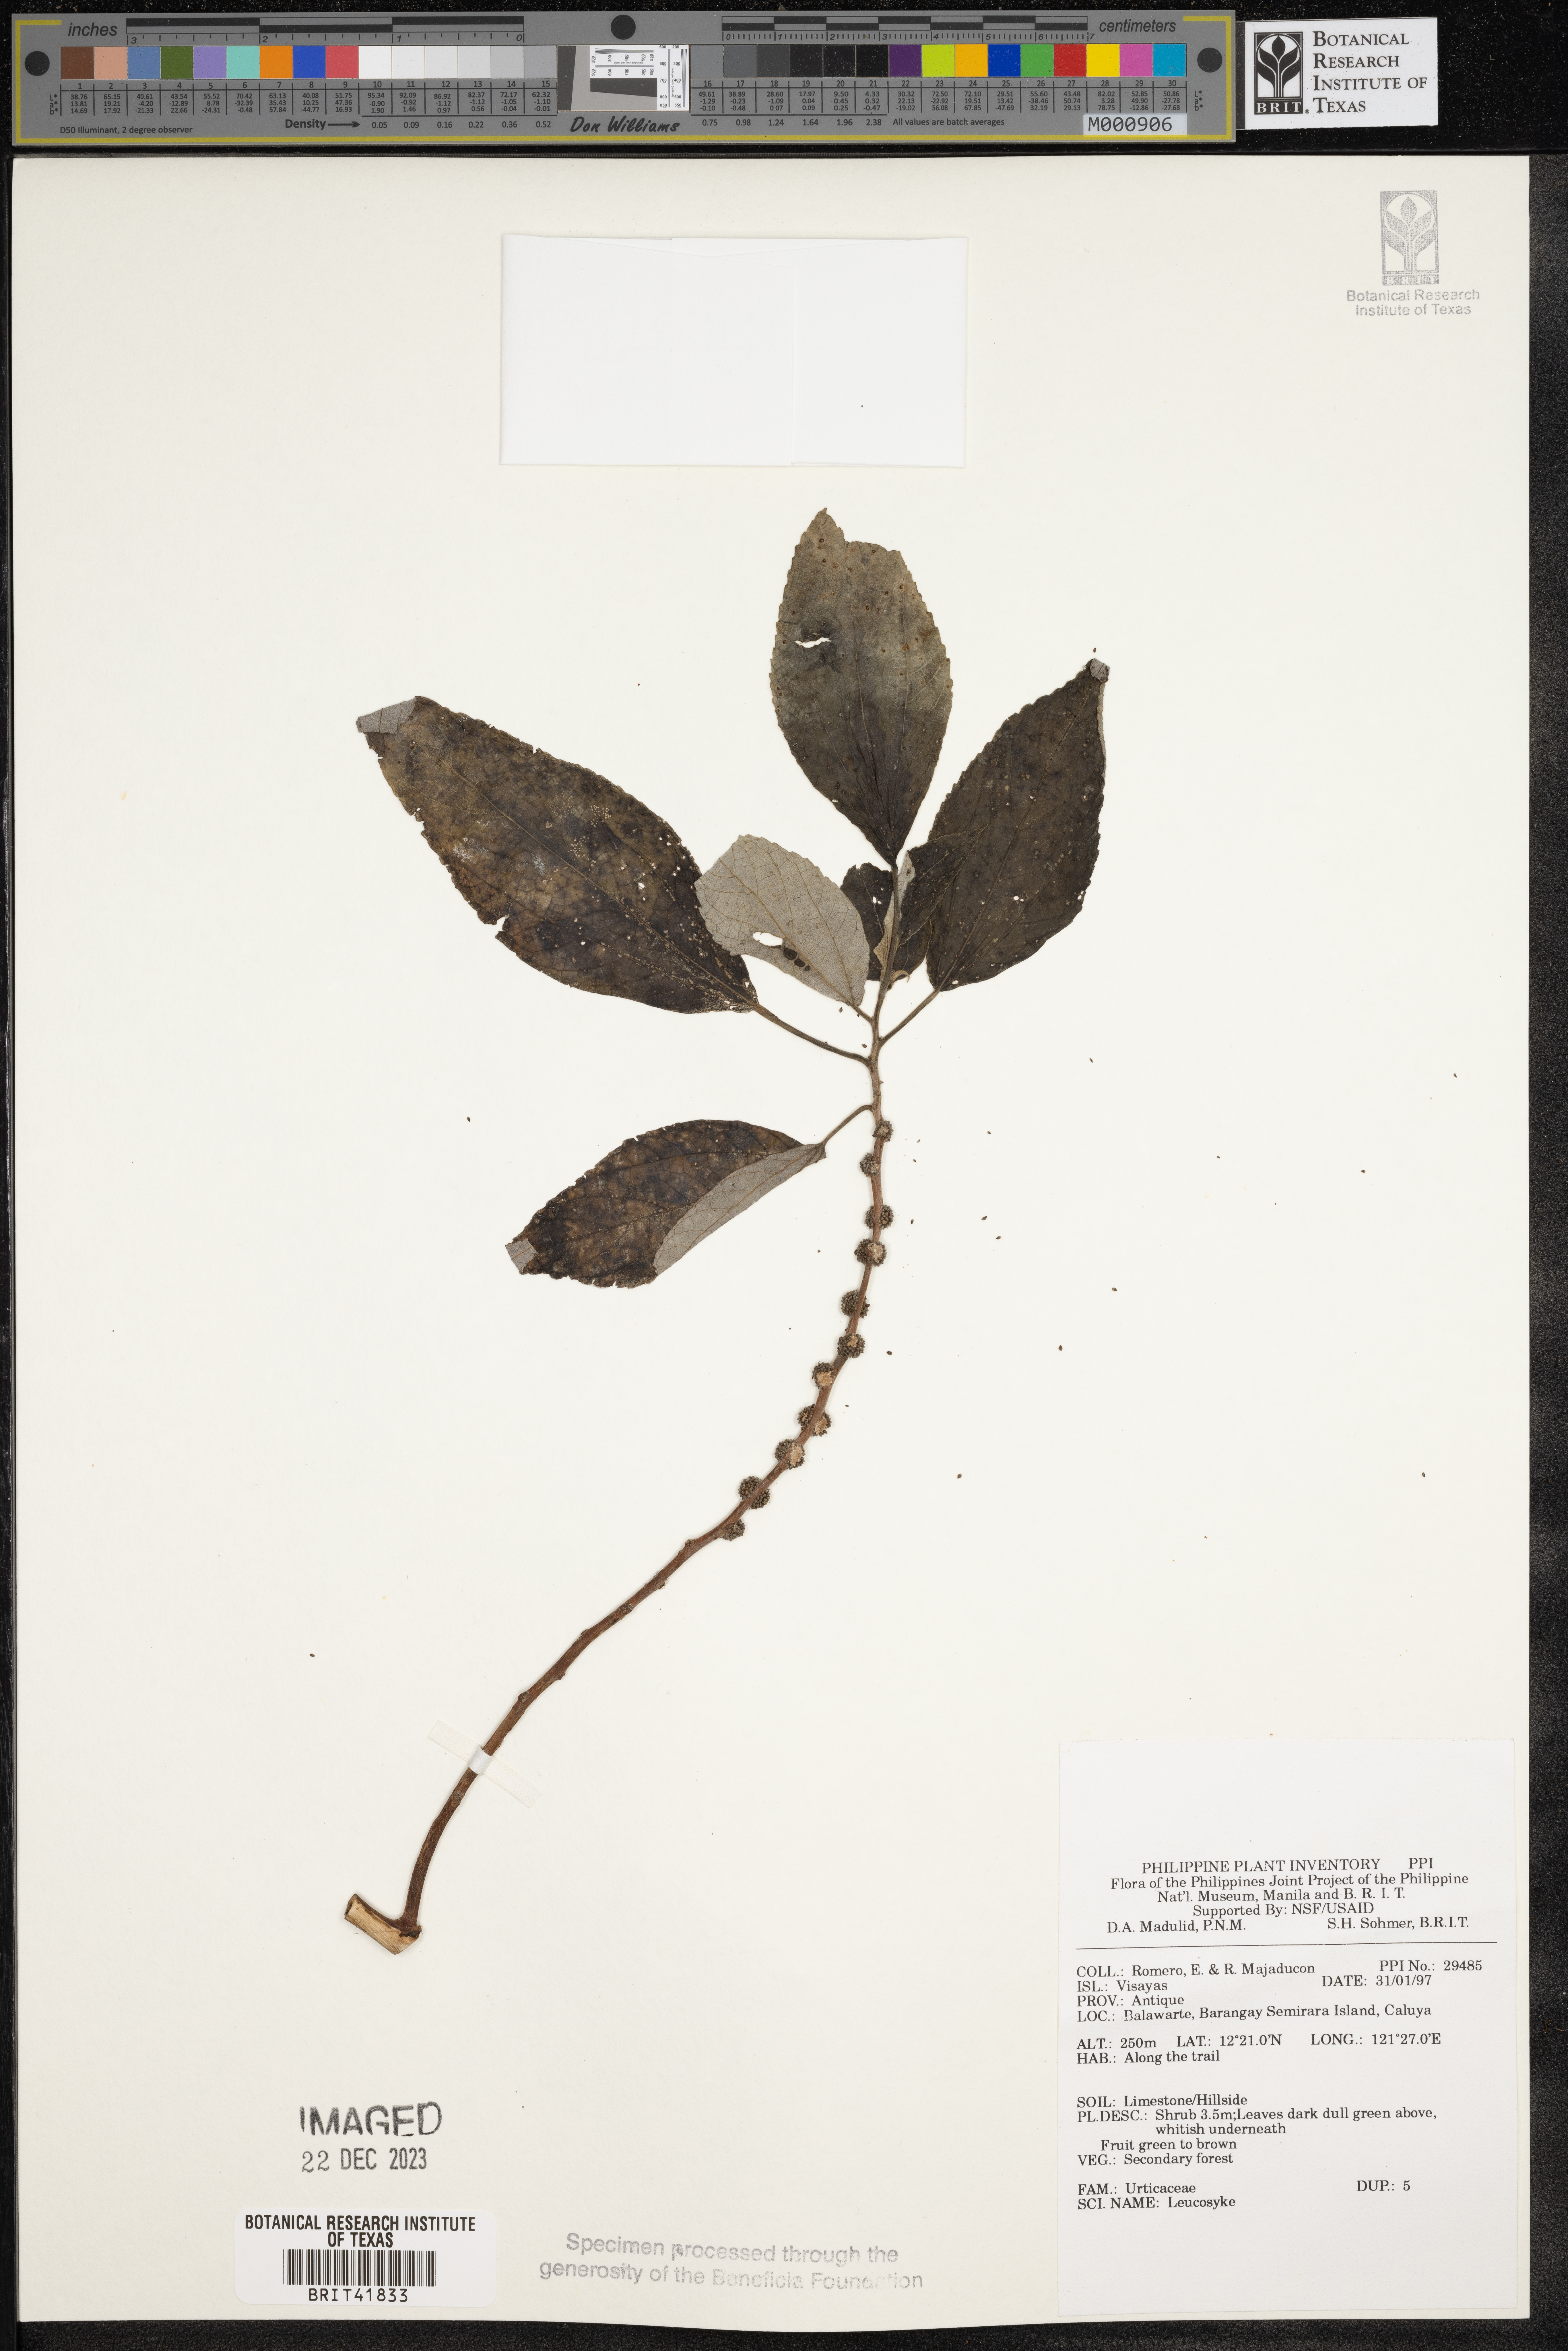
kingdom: Plantae
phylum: Tracheophyta
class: Magnoliopsida
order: Rosales
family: Urticaceae
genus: Leucosyke
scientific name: Leucosyke
